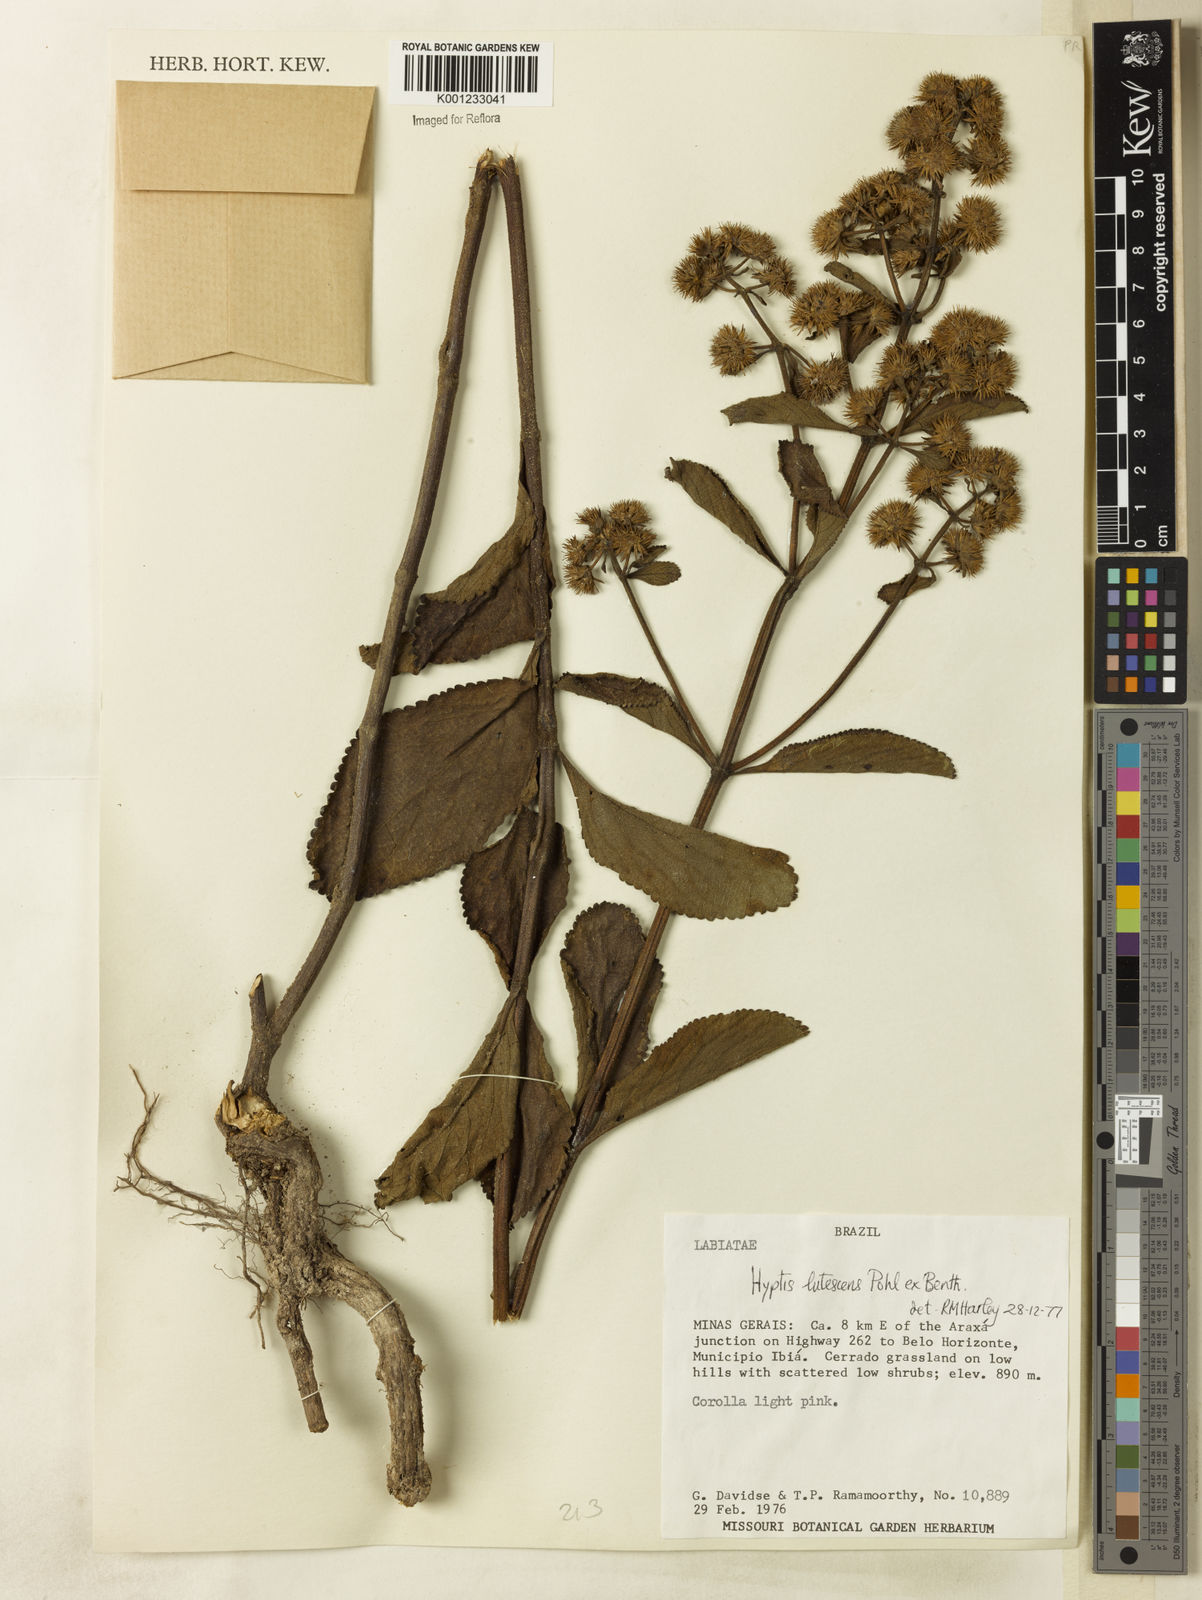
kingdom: Plantae
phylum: Tracheophyta
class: Magnoliopsida
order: Lamiales
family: Lamiaceae
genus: Hyptis
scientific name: Hyptis lutescens
